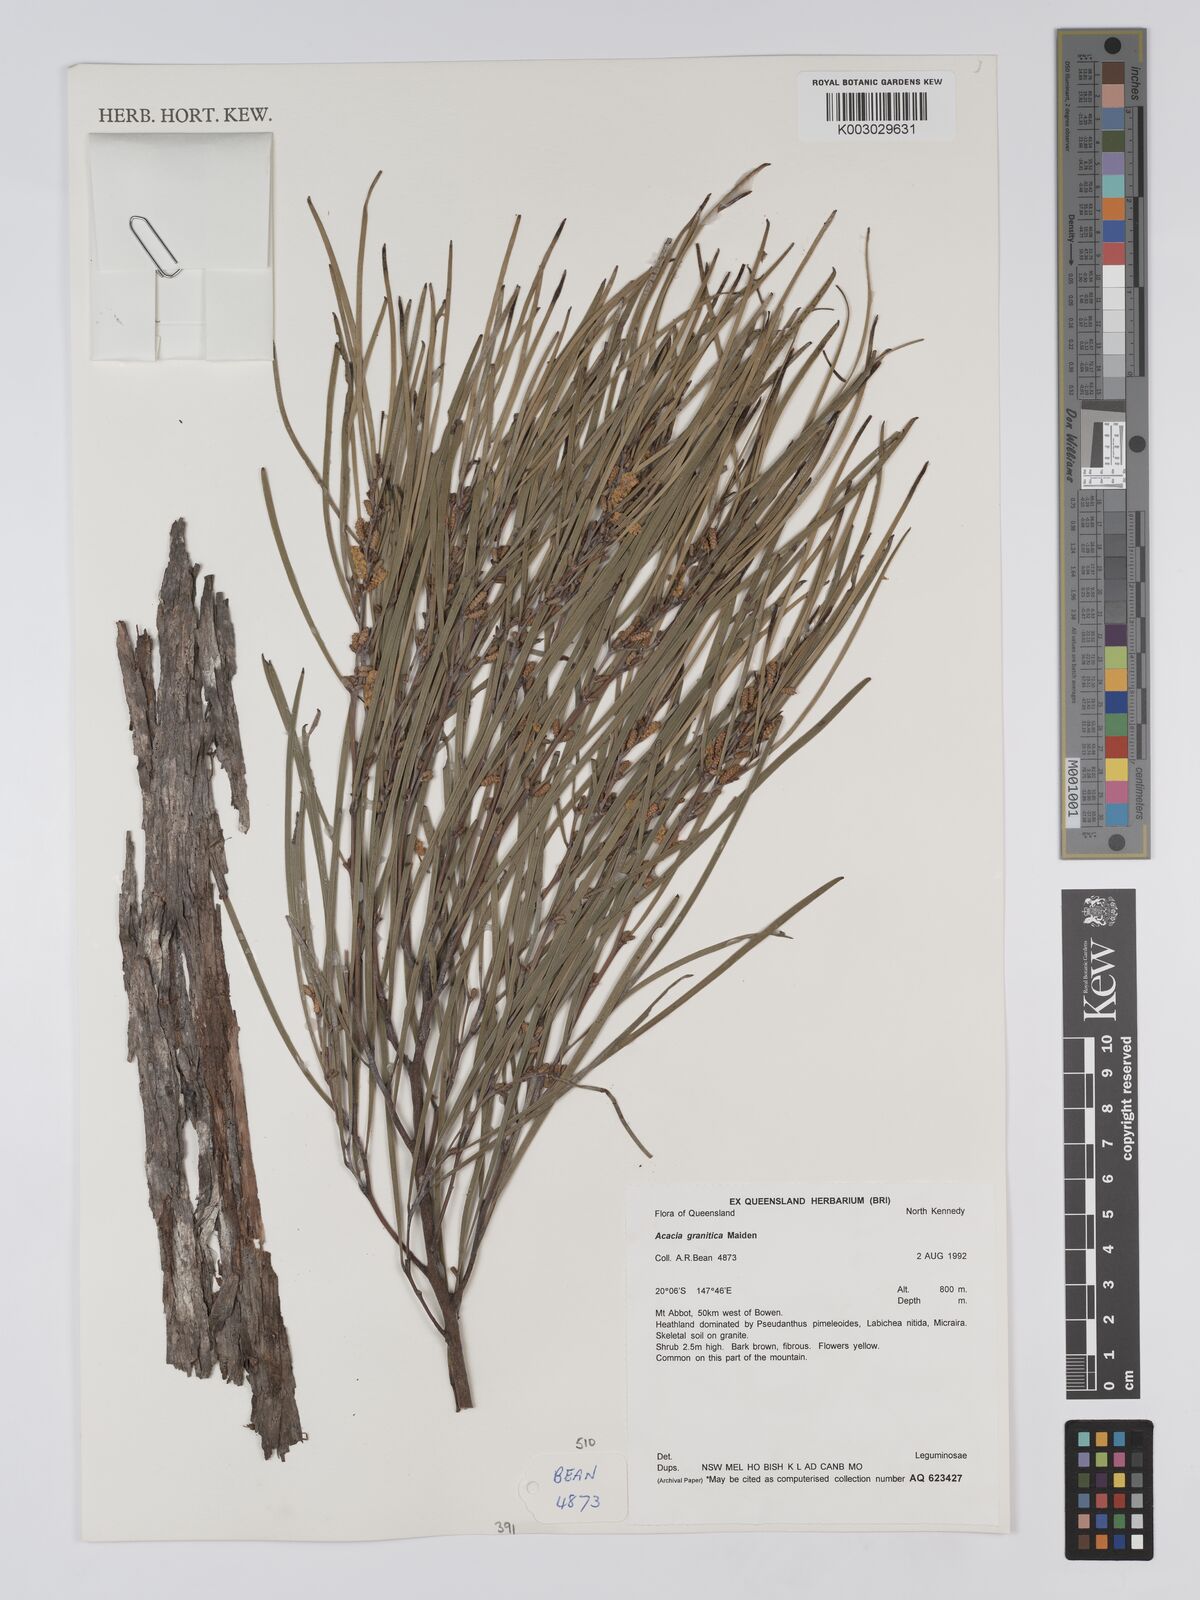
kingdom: Plantae
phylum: Tracheophyta
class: Magnoliopsida
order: Fabales
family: Fabaceae
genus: Acacia
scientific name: Acacia granitica
